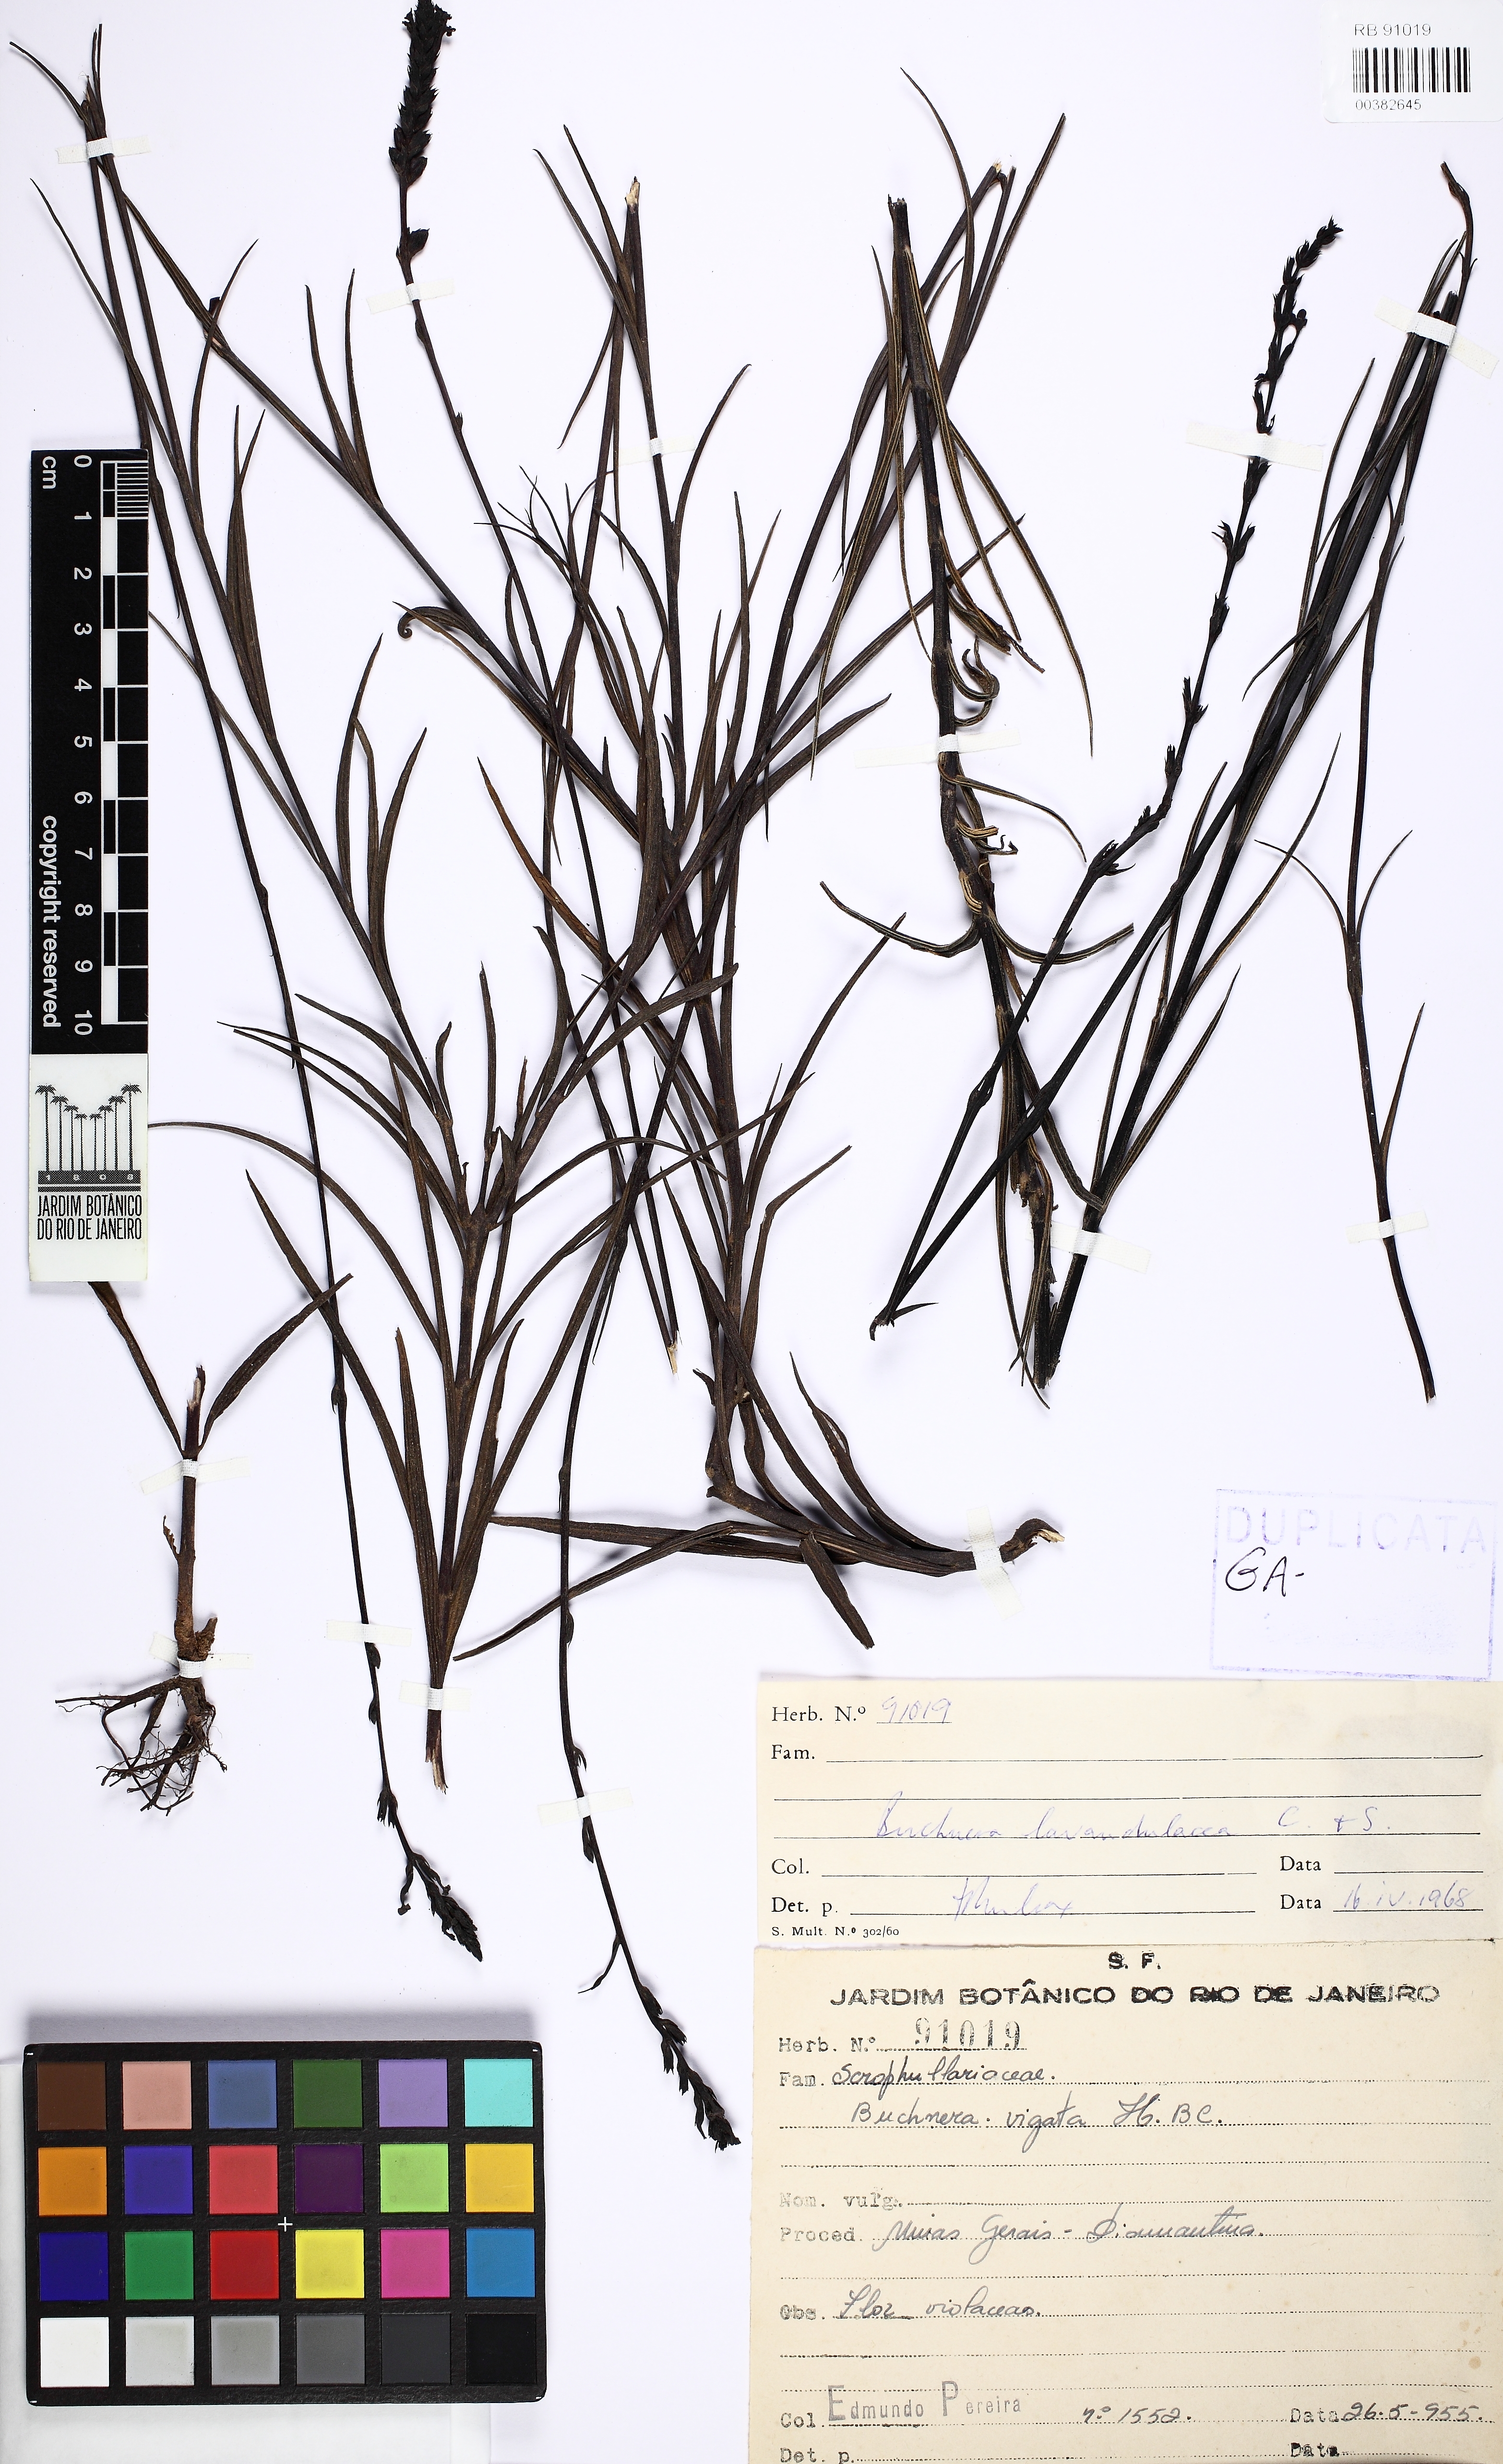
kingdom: Plantae
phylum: Tracheophyta
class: Magnoliopsida
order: Lamiales
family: Orobanchaceae
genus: Buchnera
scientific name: Buchnera lavandulacea
